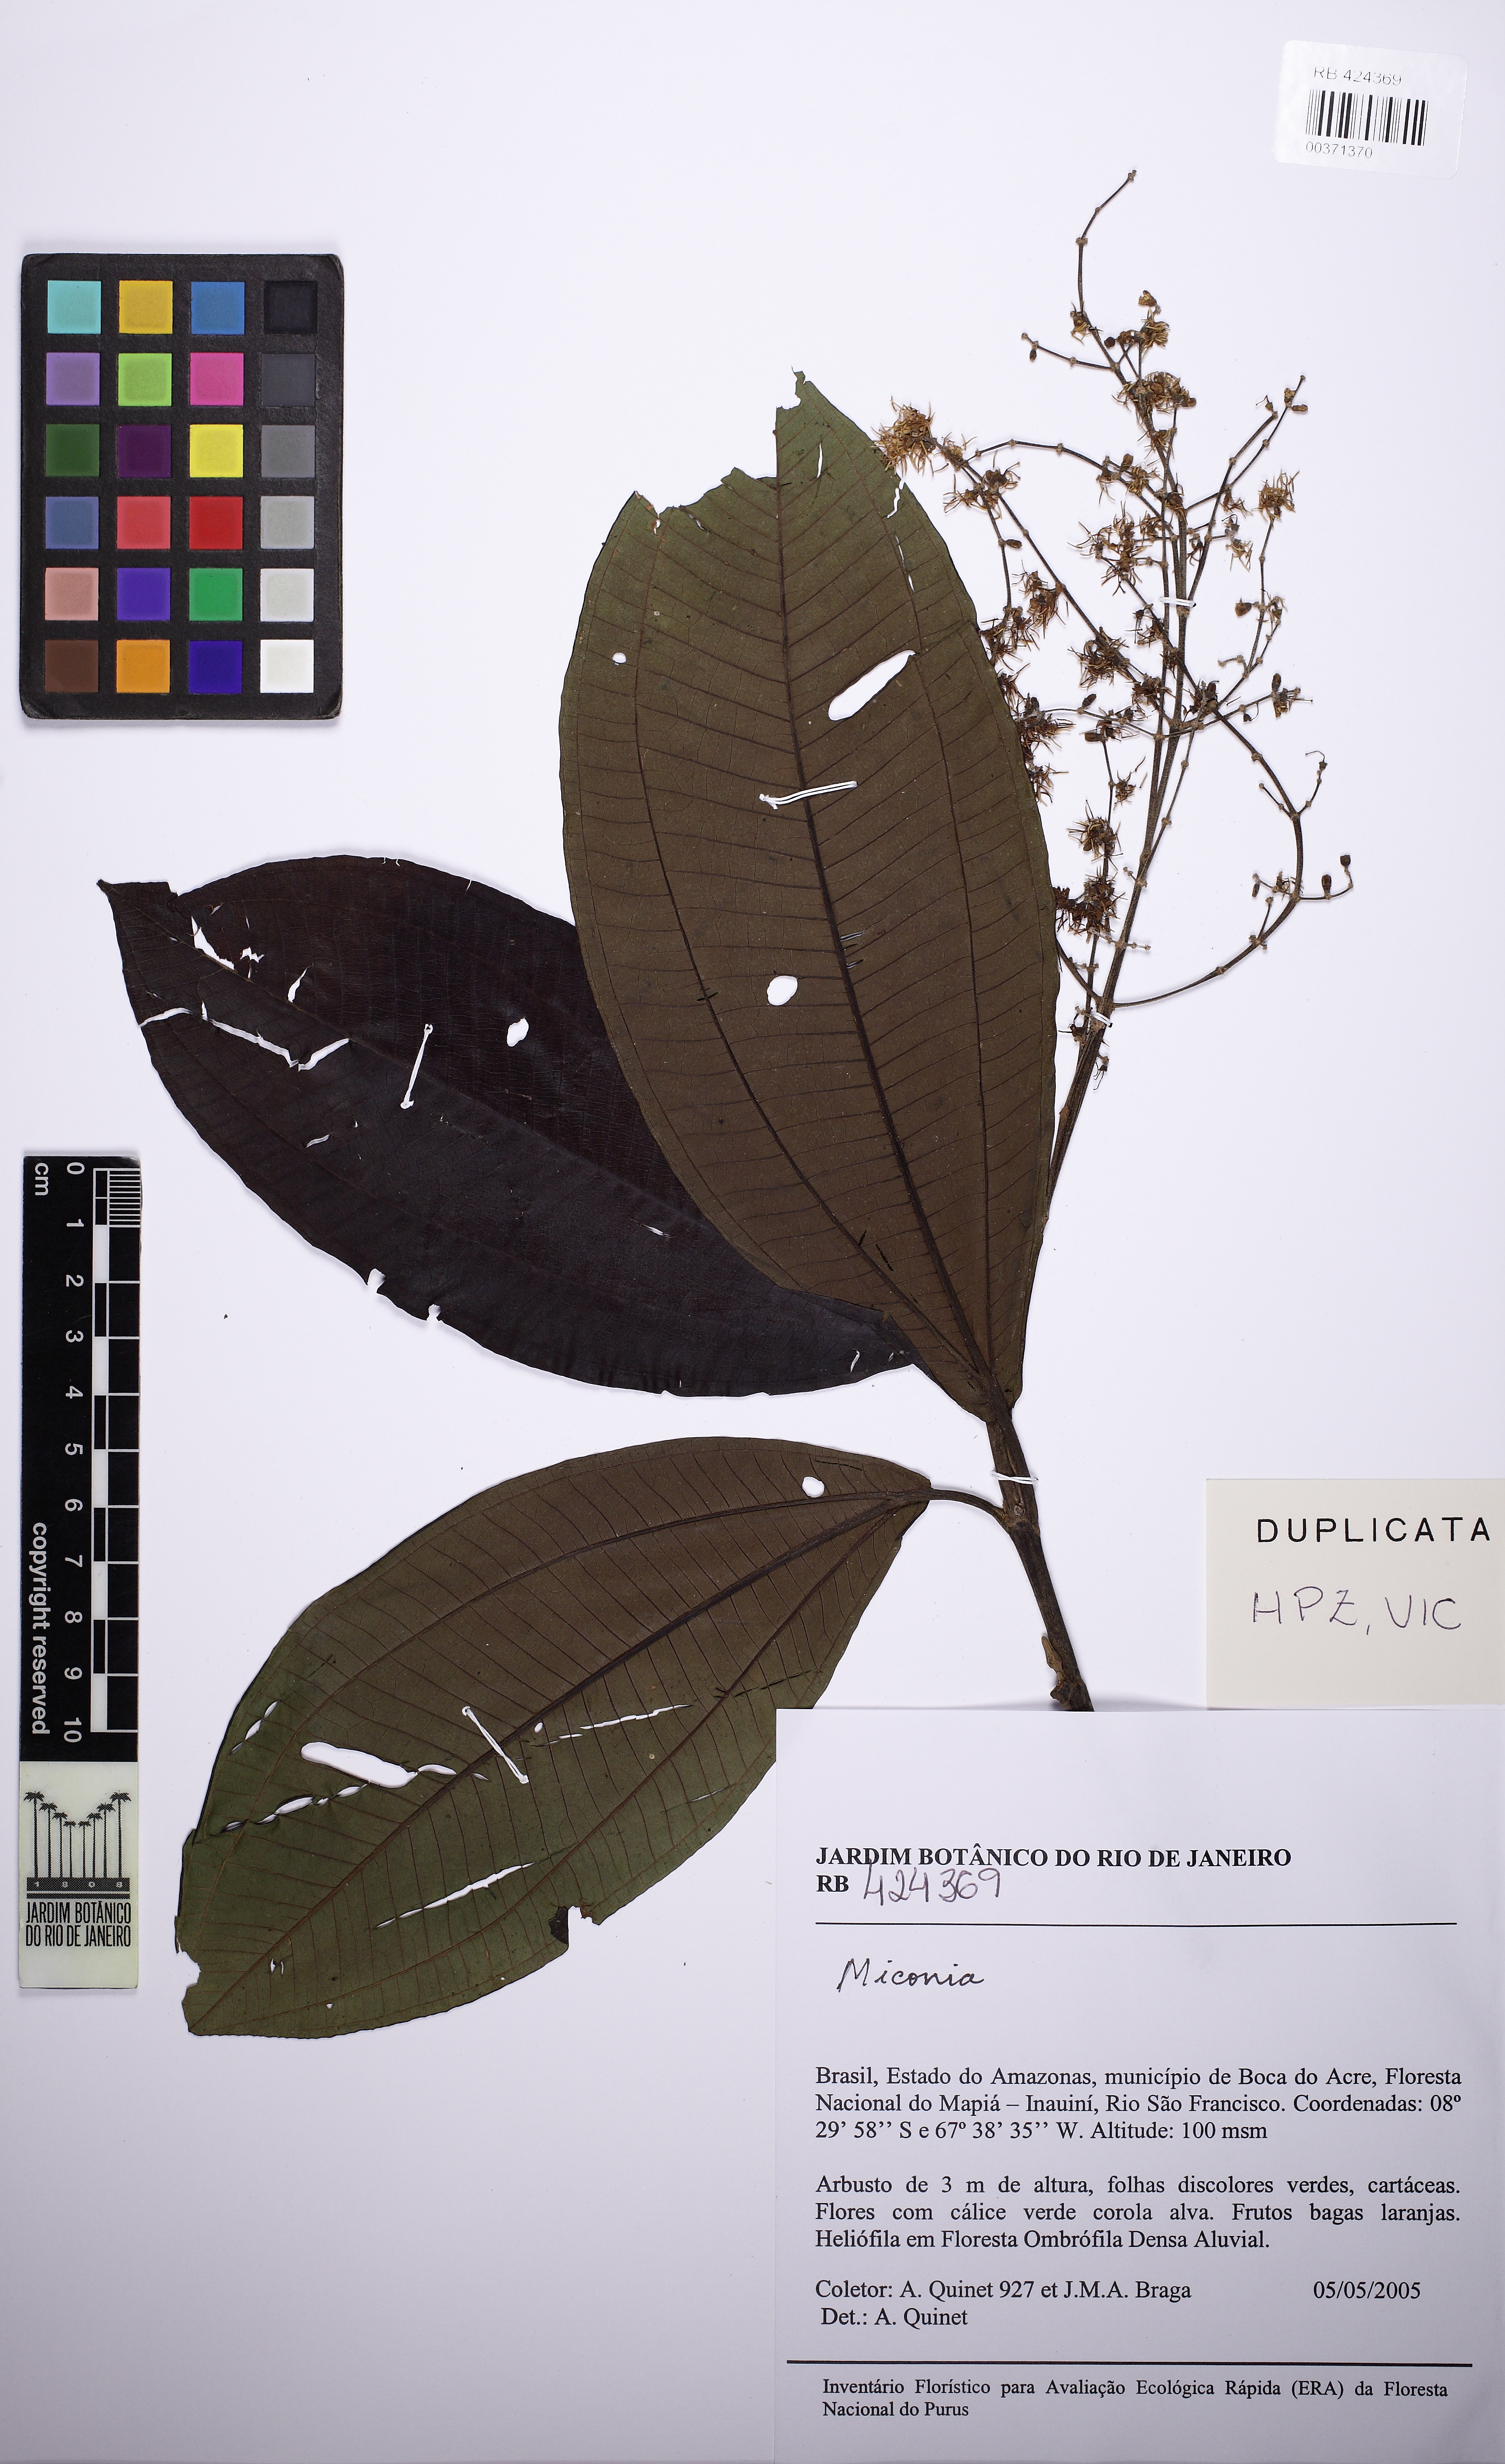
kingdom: Plantae
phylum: Tracheophyta
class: Magnoliopsida
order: Myrtales
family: Melastomataceae
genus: Miconia
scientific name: Miconia
